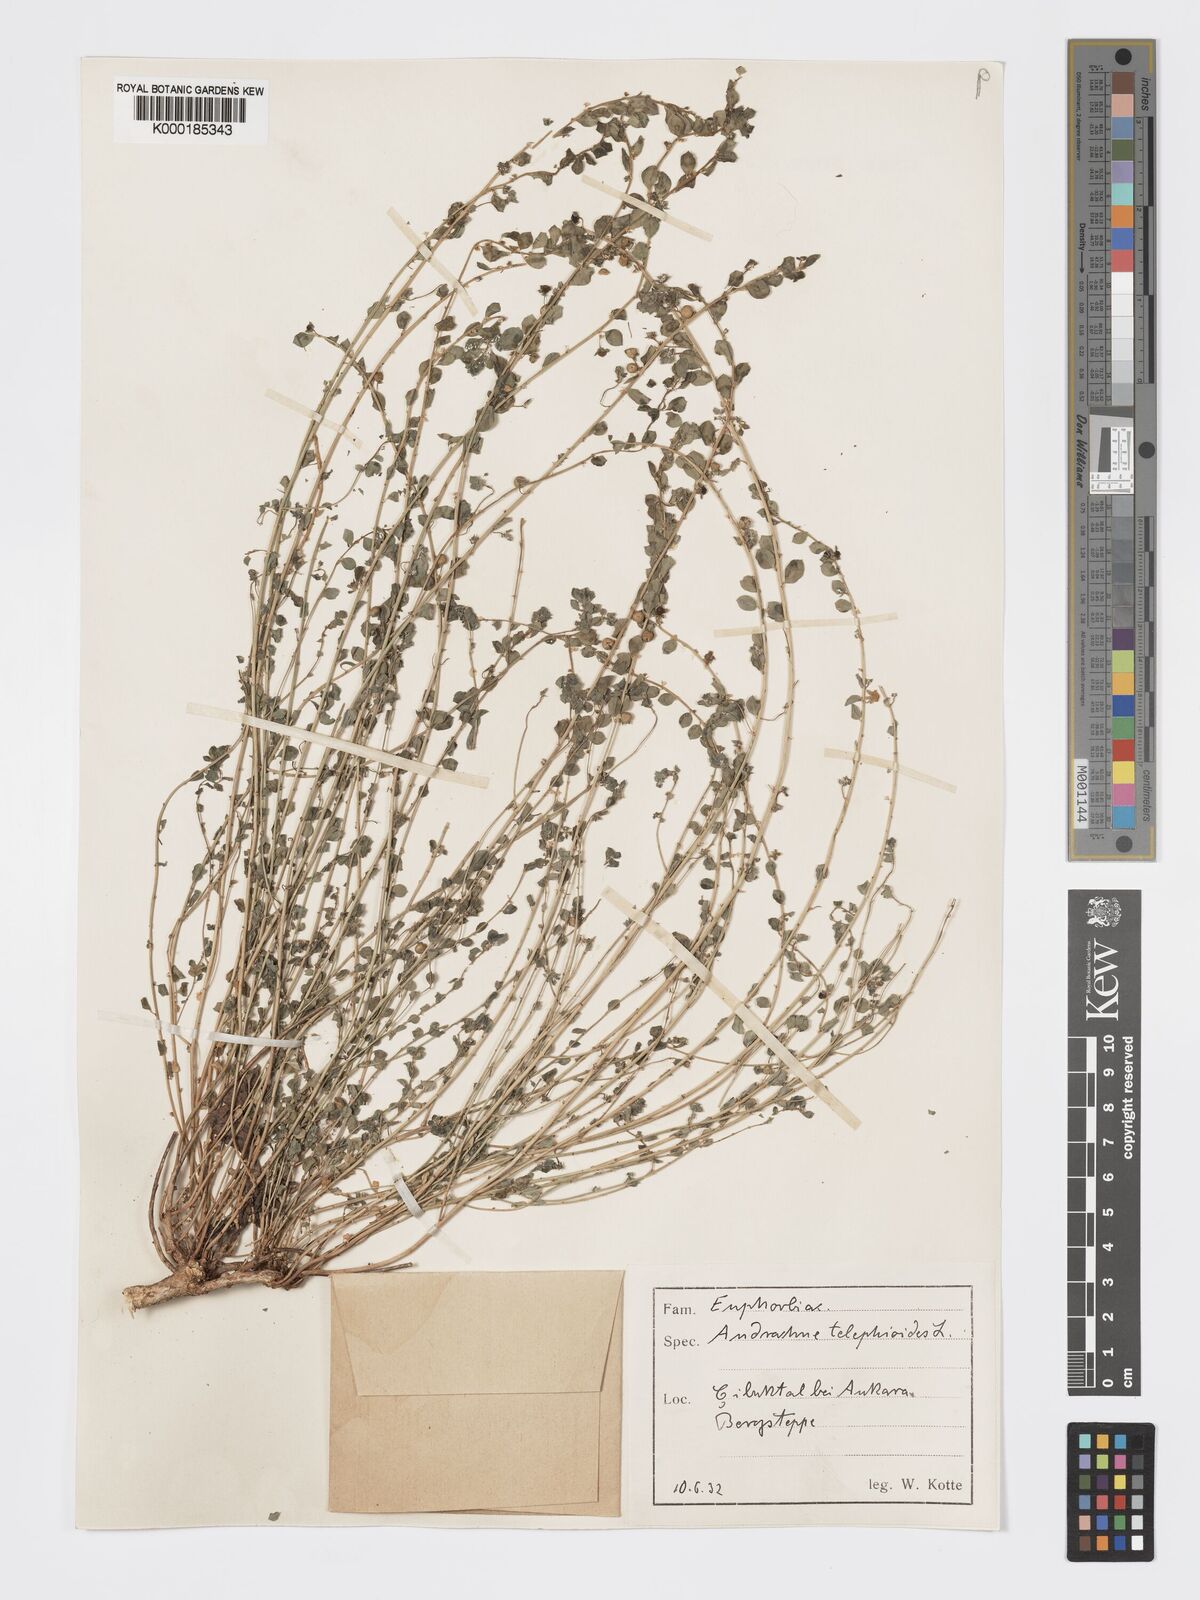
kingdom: Plantae
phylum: Tracheophyta
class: Magnoliopsida
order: Malpighiales
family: Phyllanthaceae
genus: Andrachne
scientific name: Andrachne telephioides
